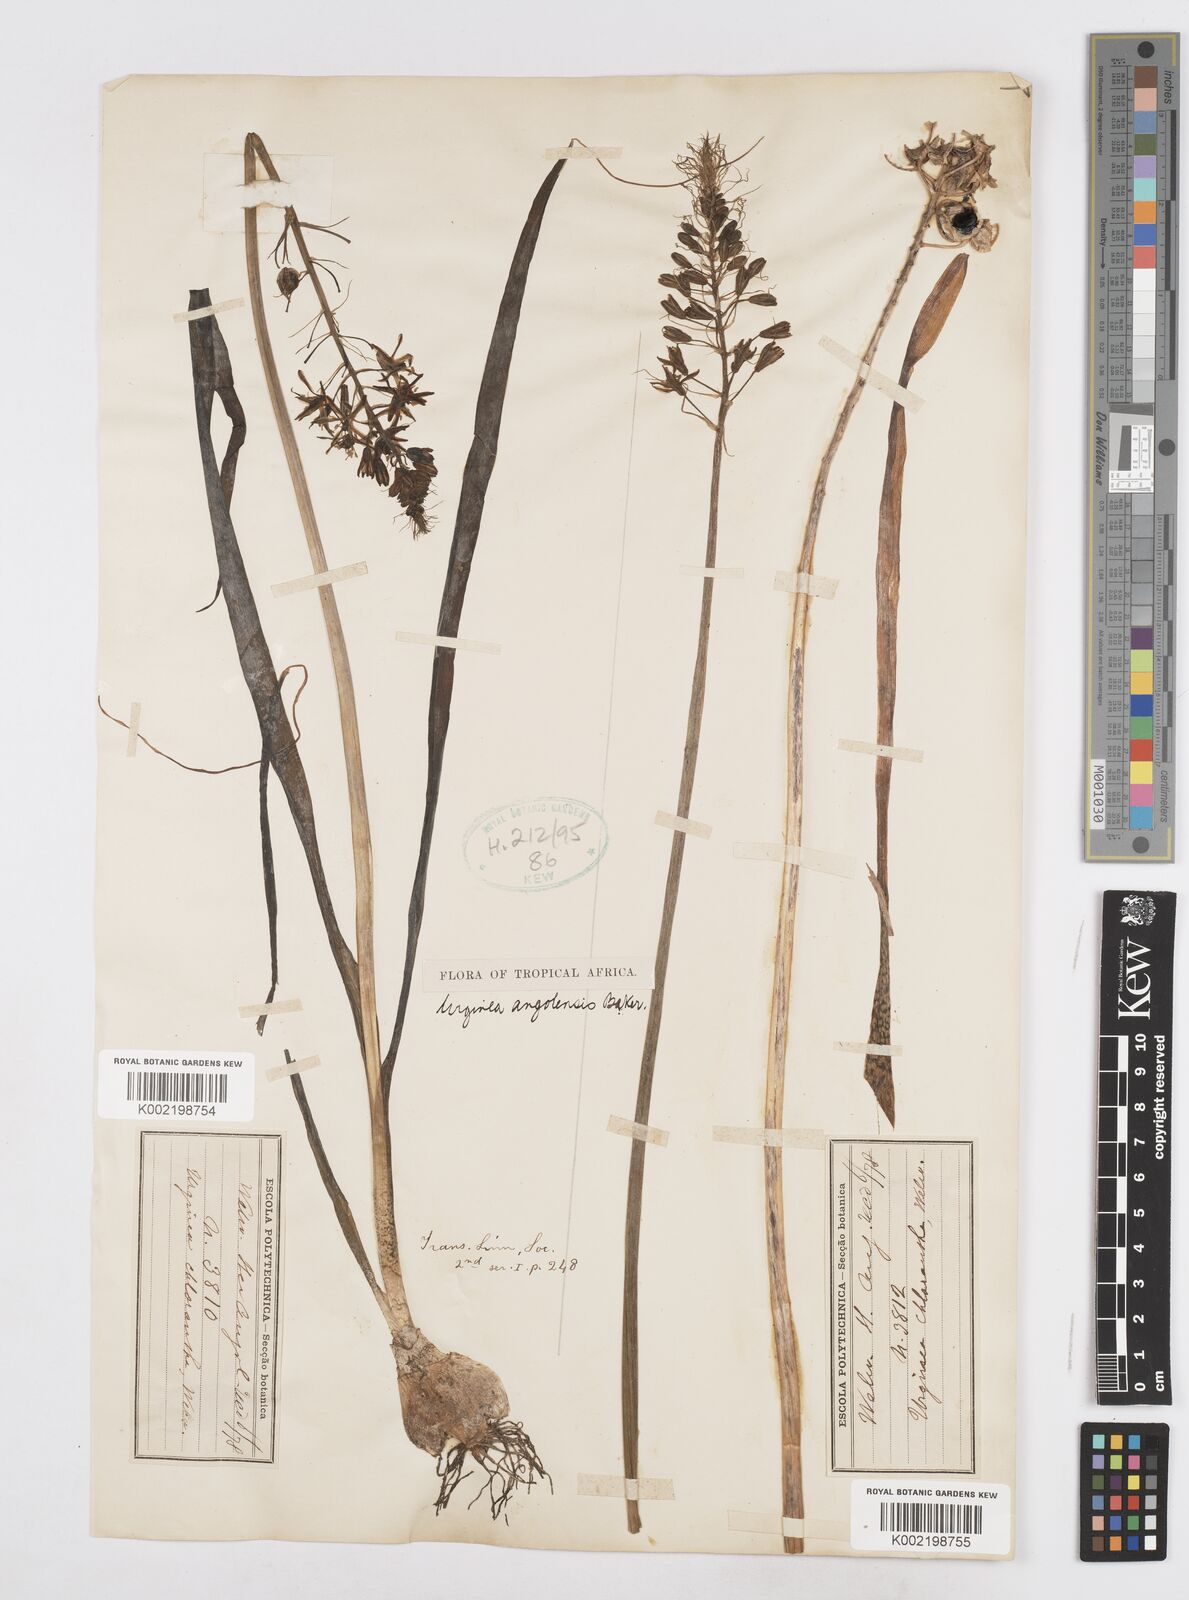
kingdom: Plantae
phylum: Tracheophyta
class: Liliopsida
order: Asparagales
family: Asparagaceae
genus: Drimia
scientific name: Drimia
